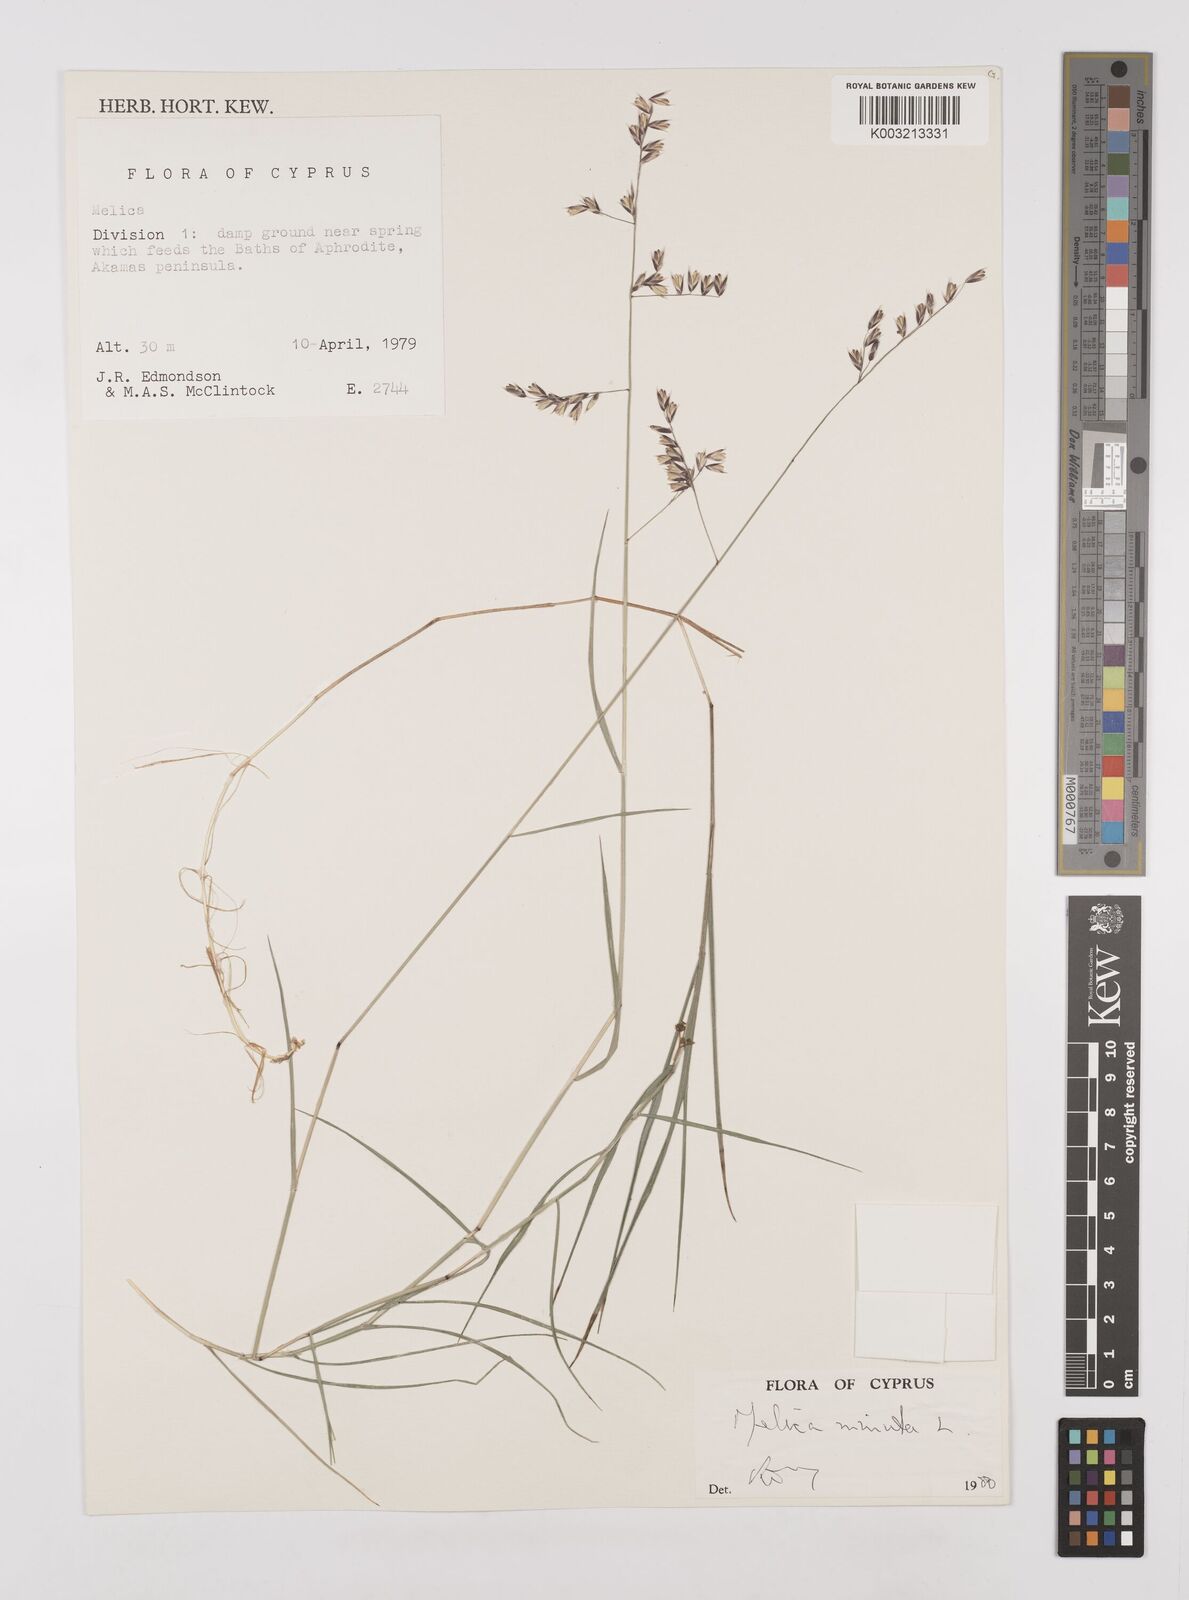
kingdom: Plantae
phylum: Tracheophyta
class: Liliopsida
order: Poales
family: Poaceae
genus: Melica
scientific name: Melica minuta
